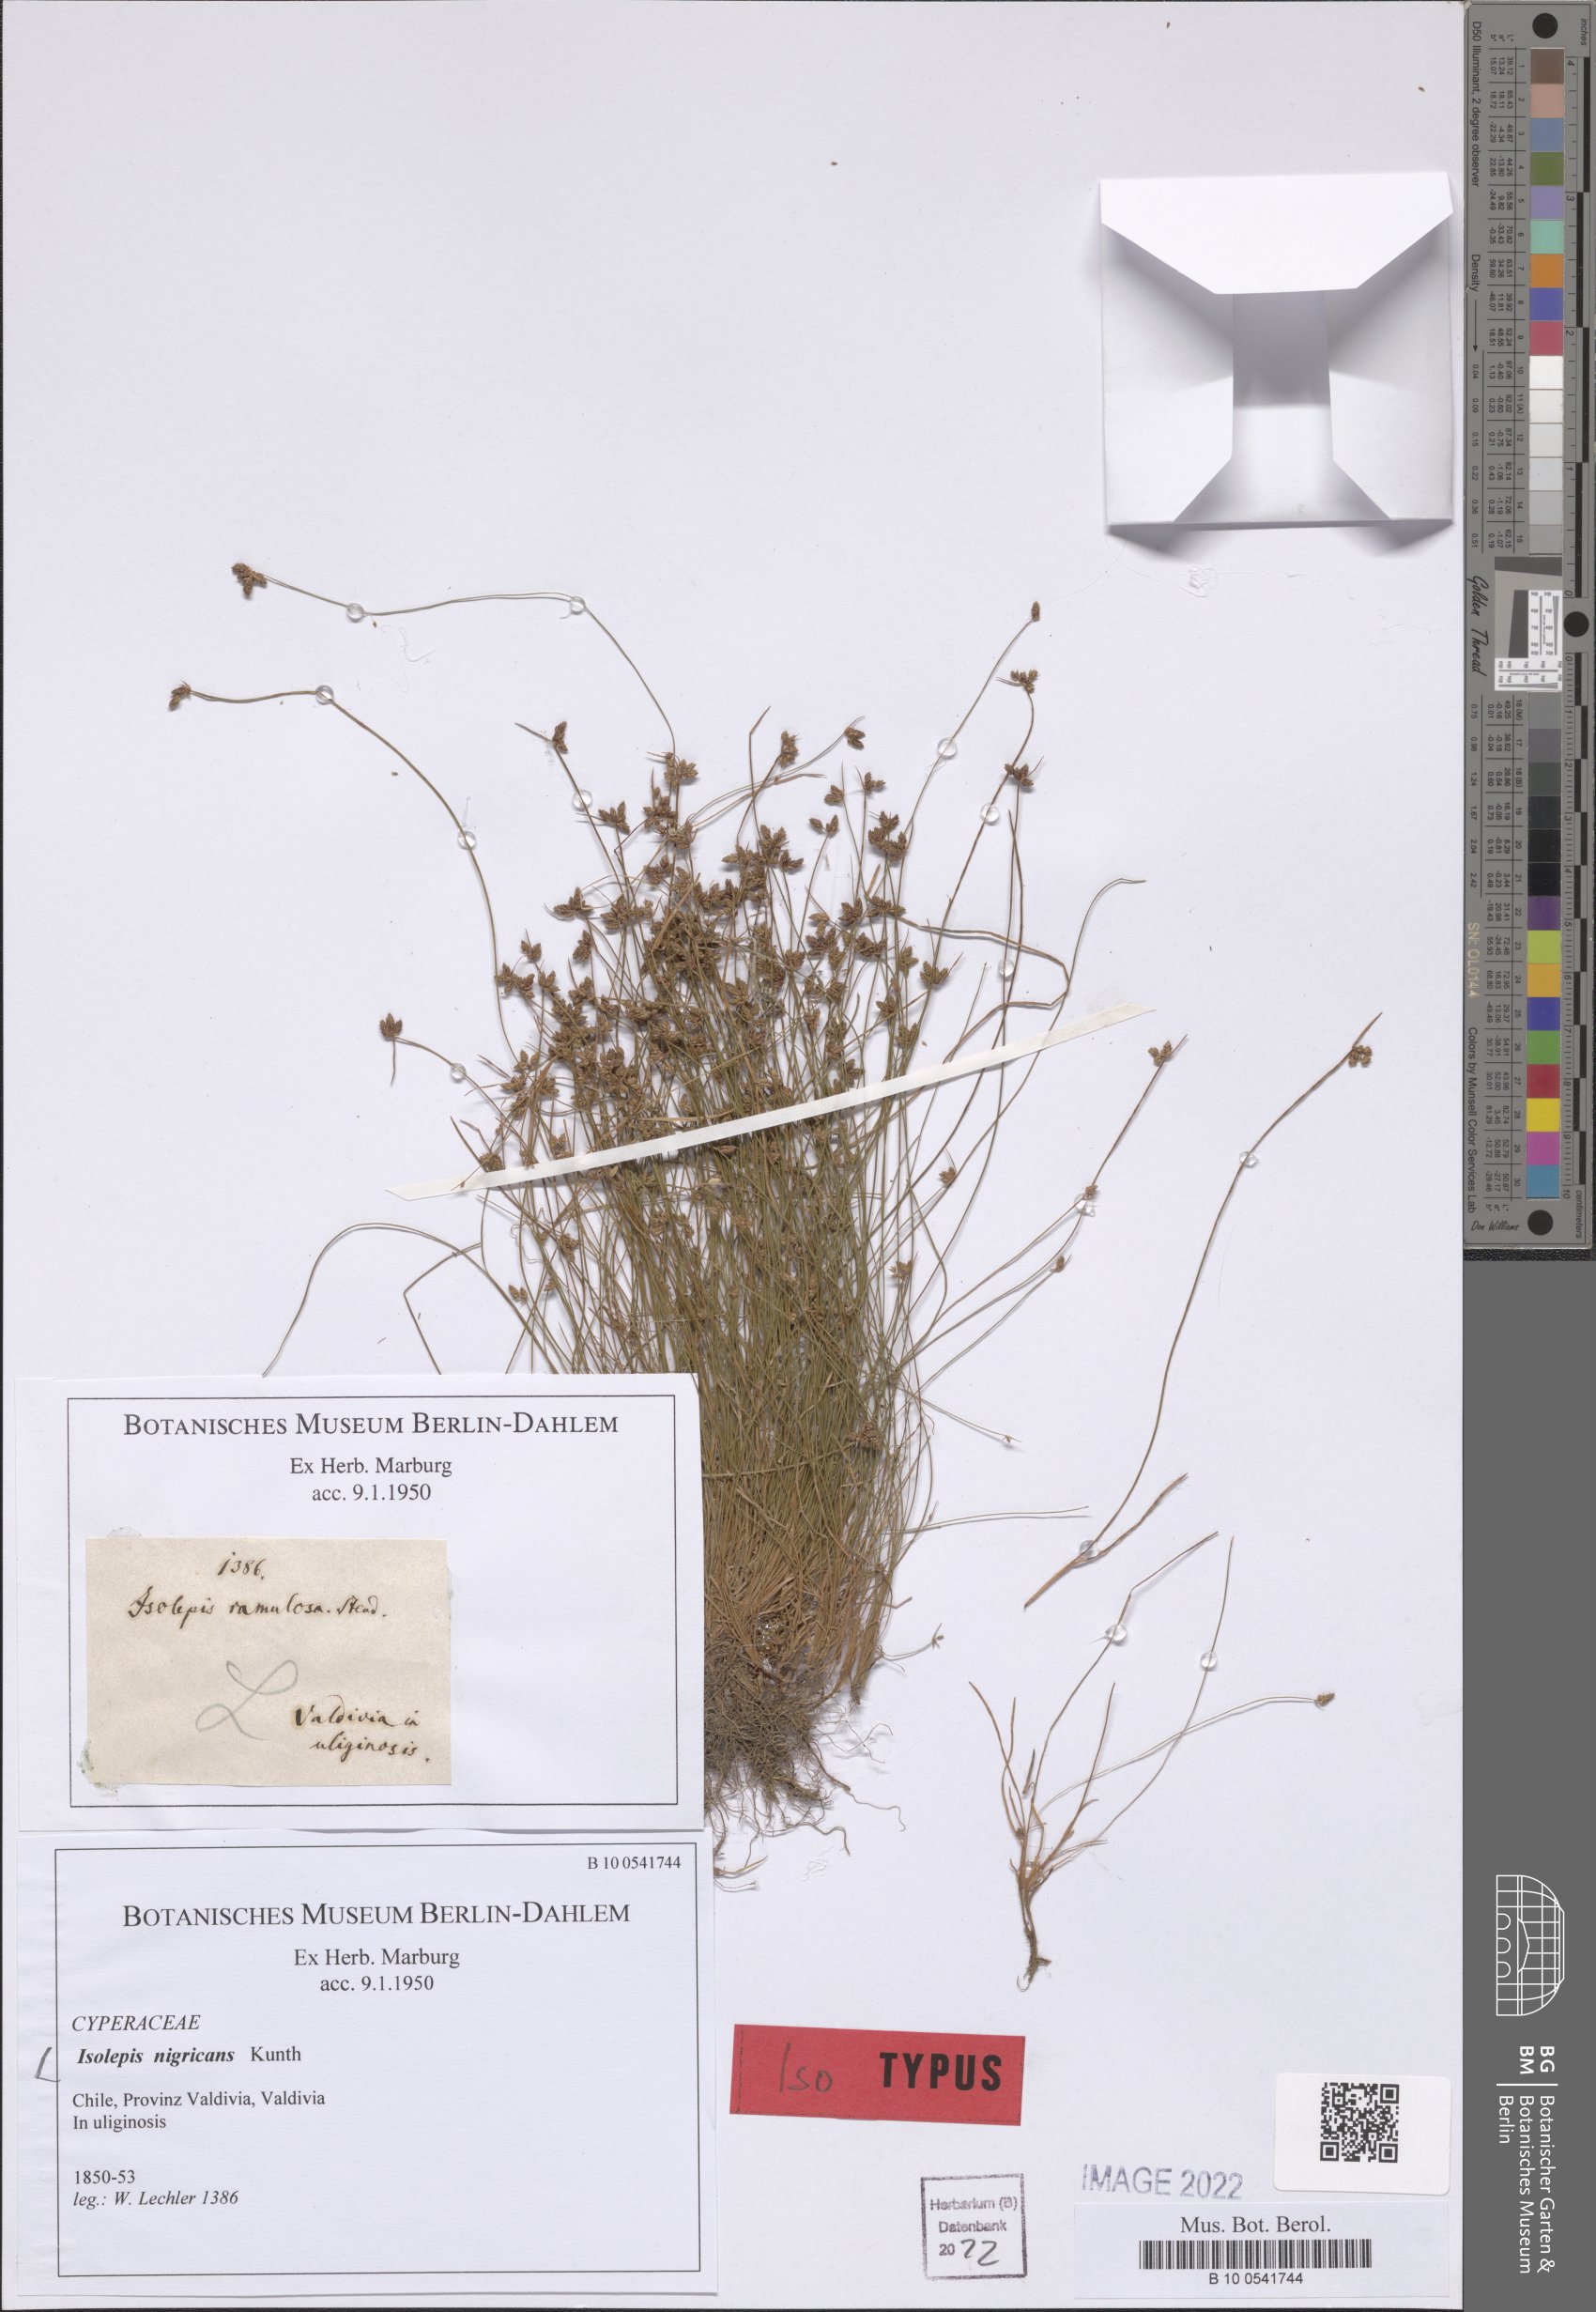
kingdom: Plantae
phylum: Tracheophyta
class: Liliopsida
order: Poales
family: Cyperaceae
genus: Isolepis
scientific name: Isolepis nigricans
